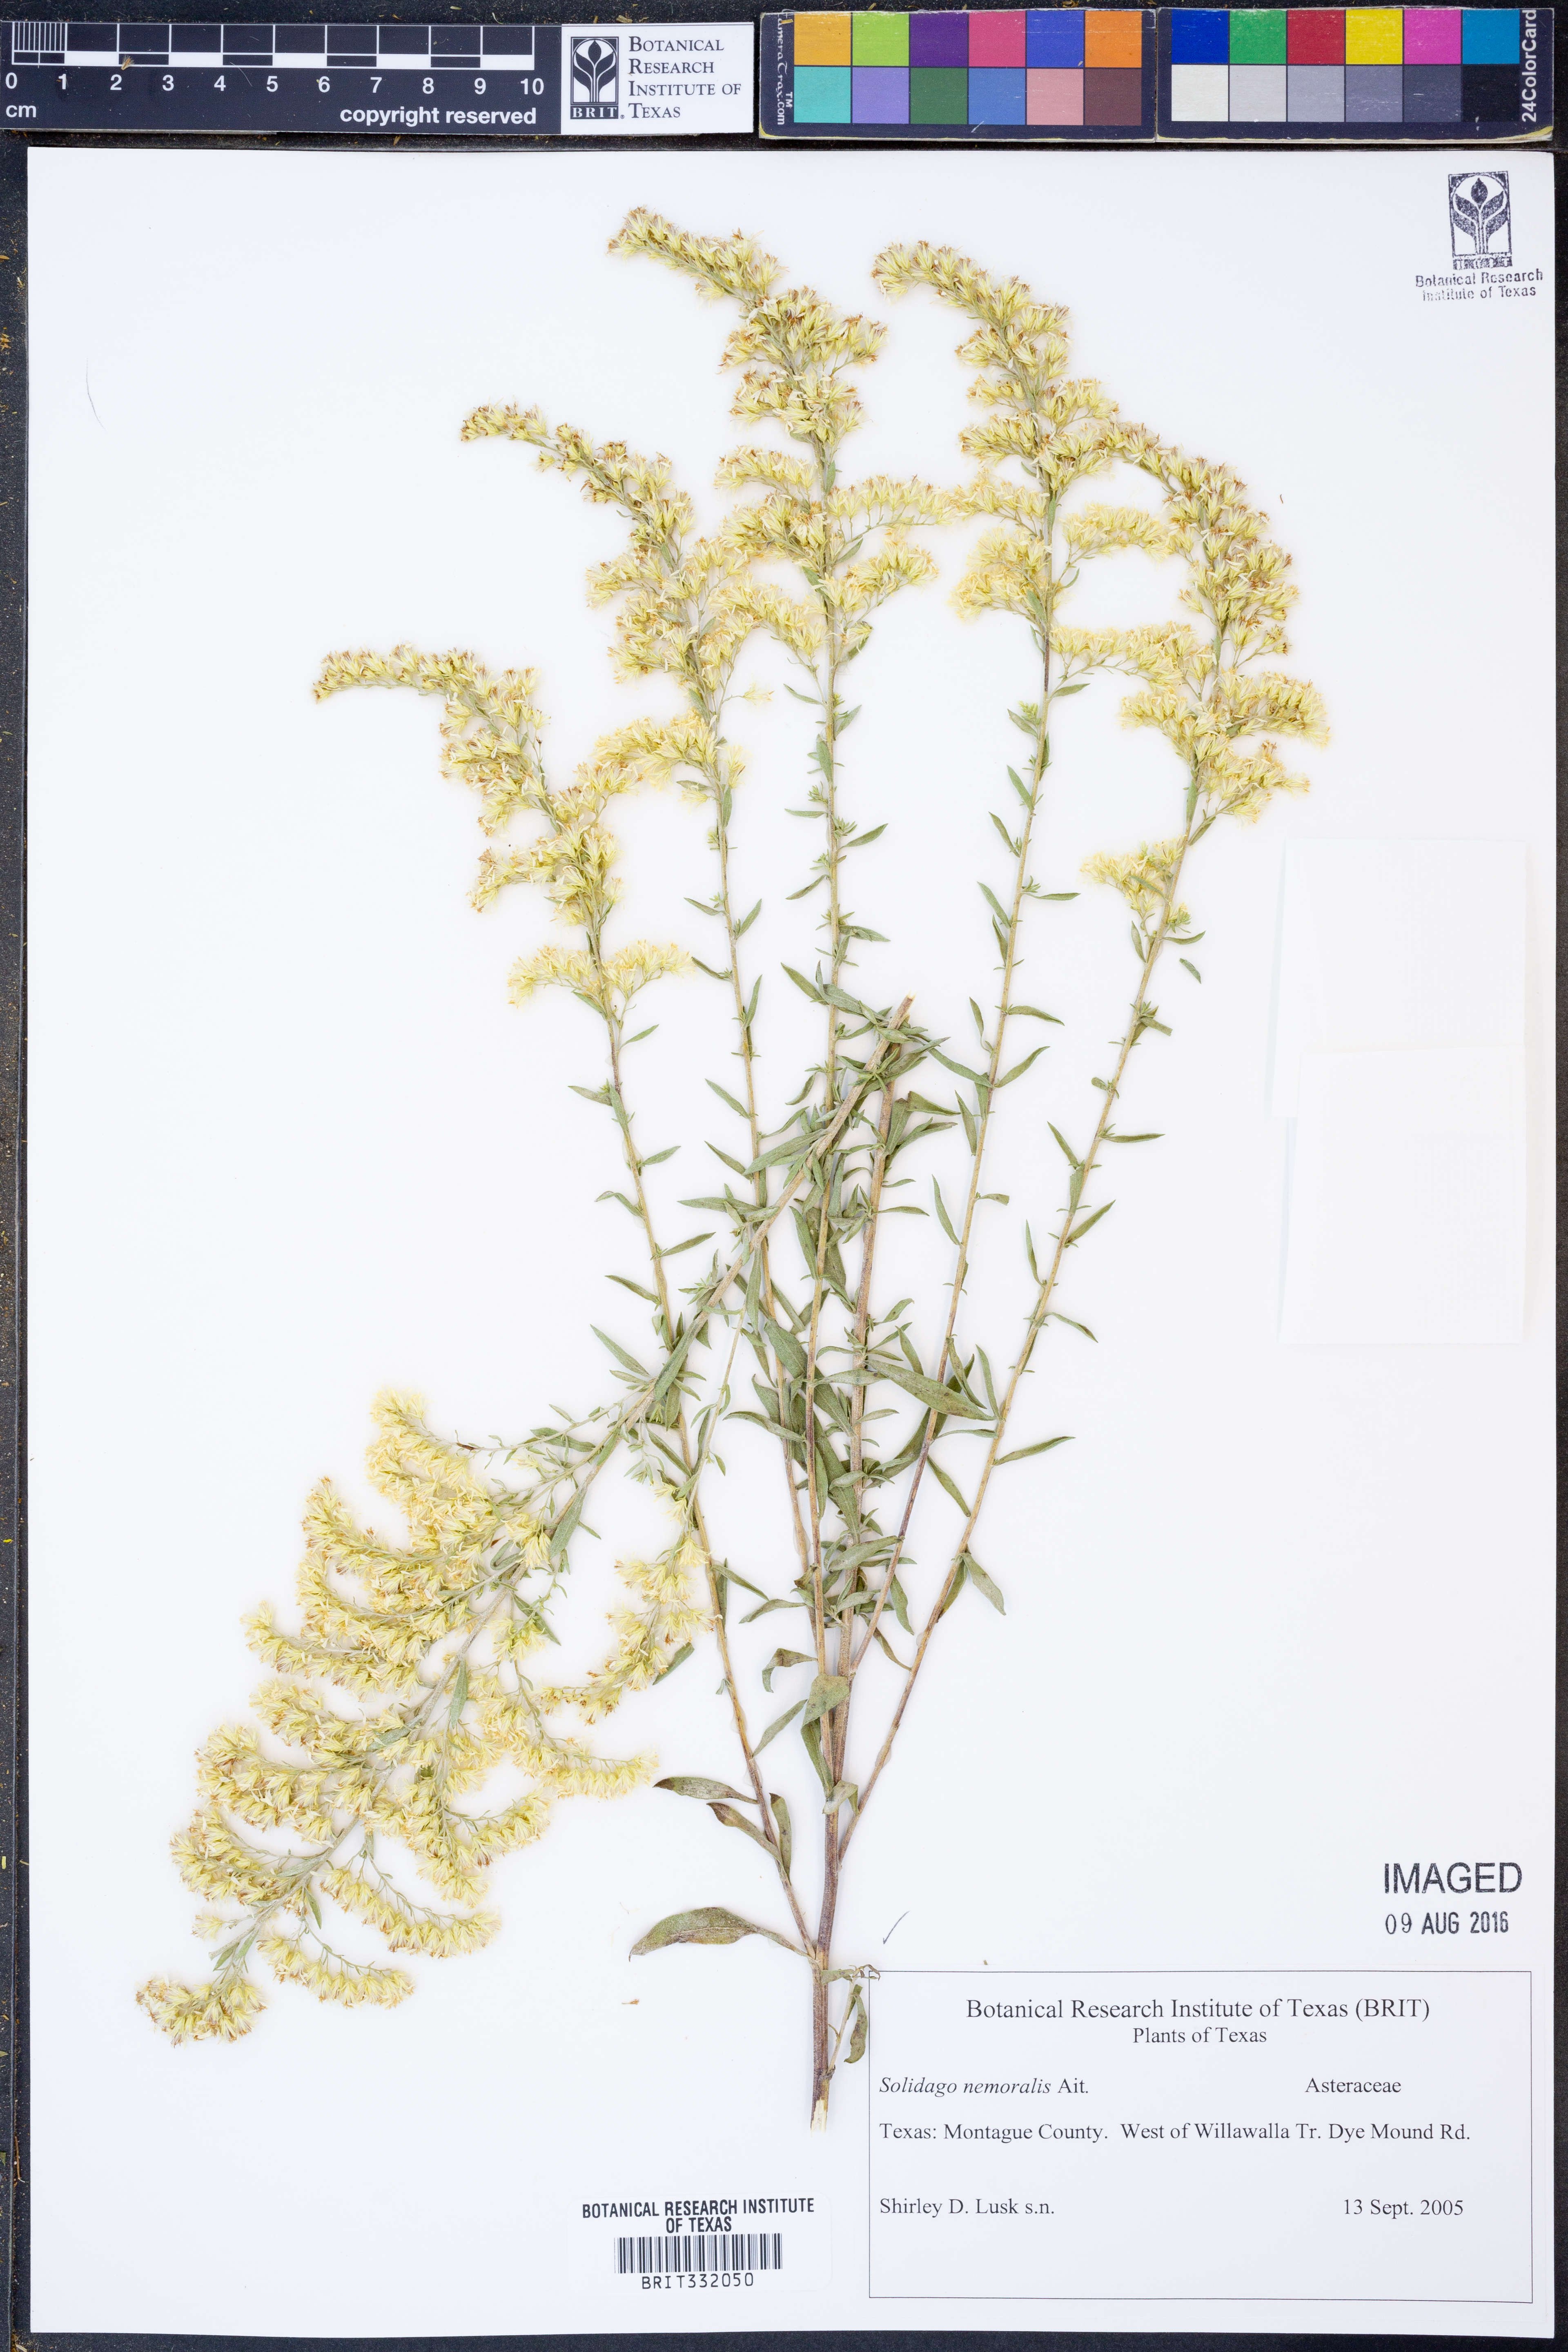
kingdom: Plantae
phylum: Tracheophyta
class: Magnoliopsida
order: Asterales
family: Asteraceae
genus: Solidago
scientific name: Solidago nemoralis
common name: Grey goldenrod
